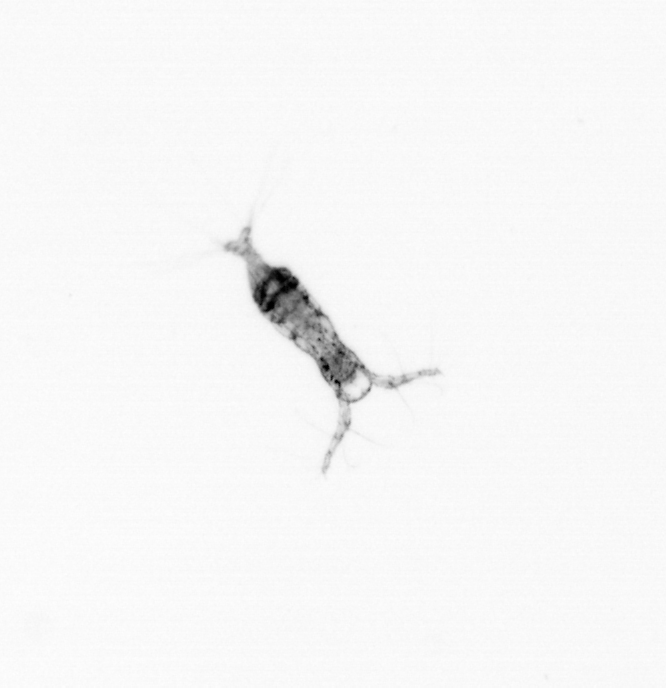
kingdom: Animalia
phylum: Arthropoda
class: Copepoda
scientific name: Copepoda
